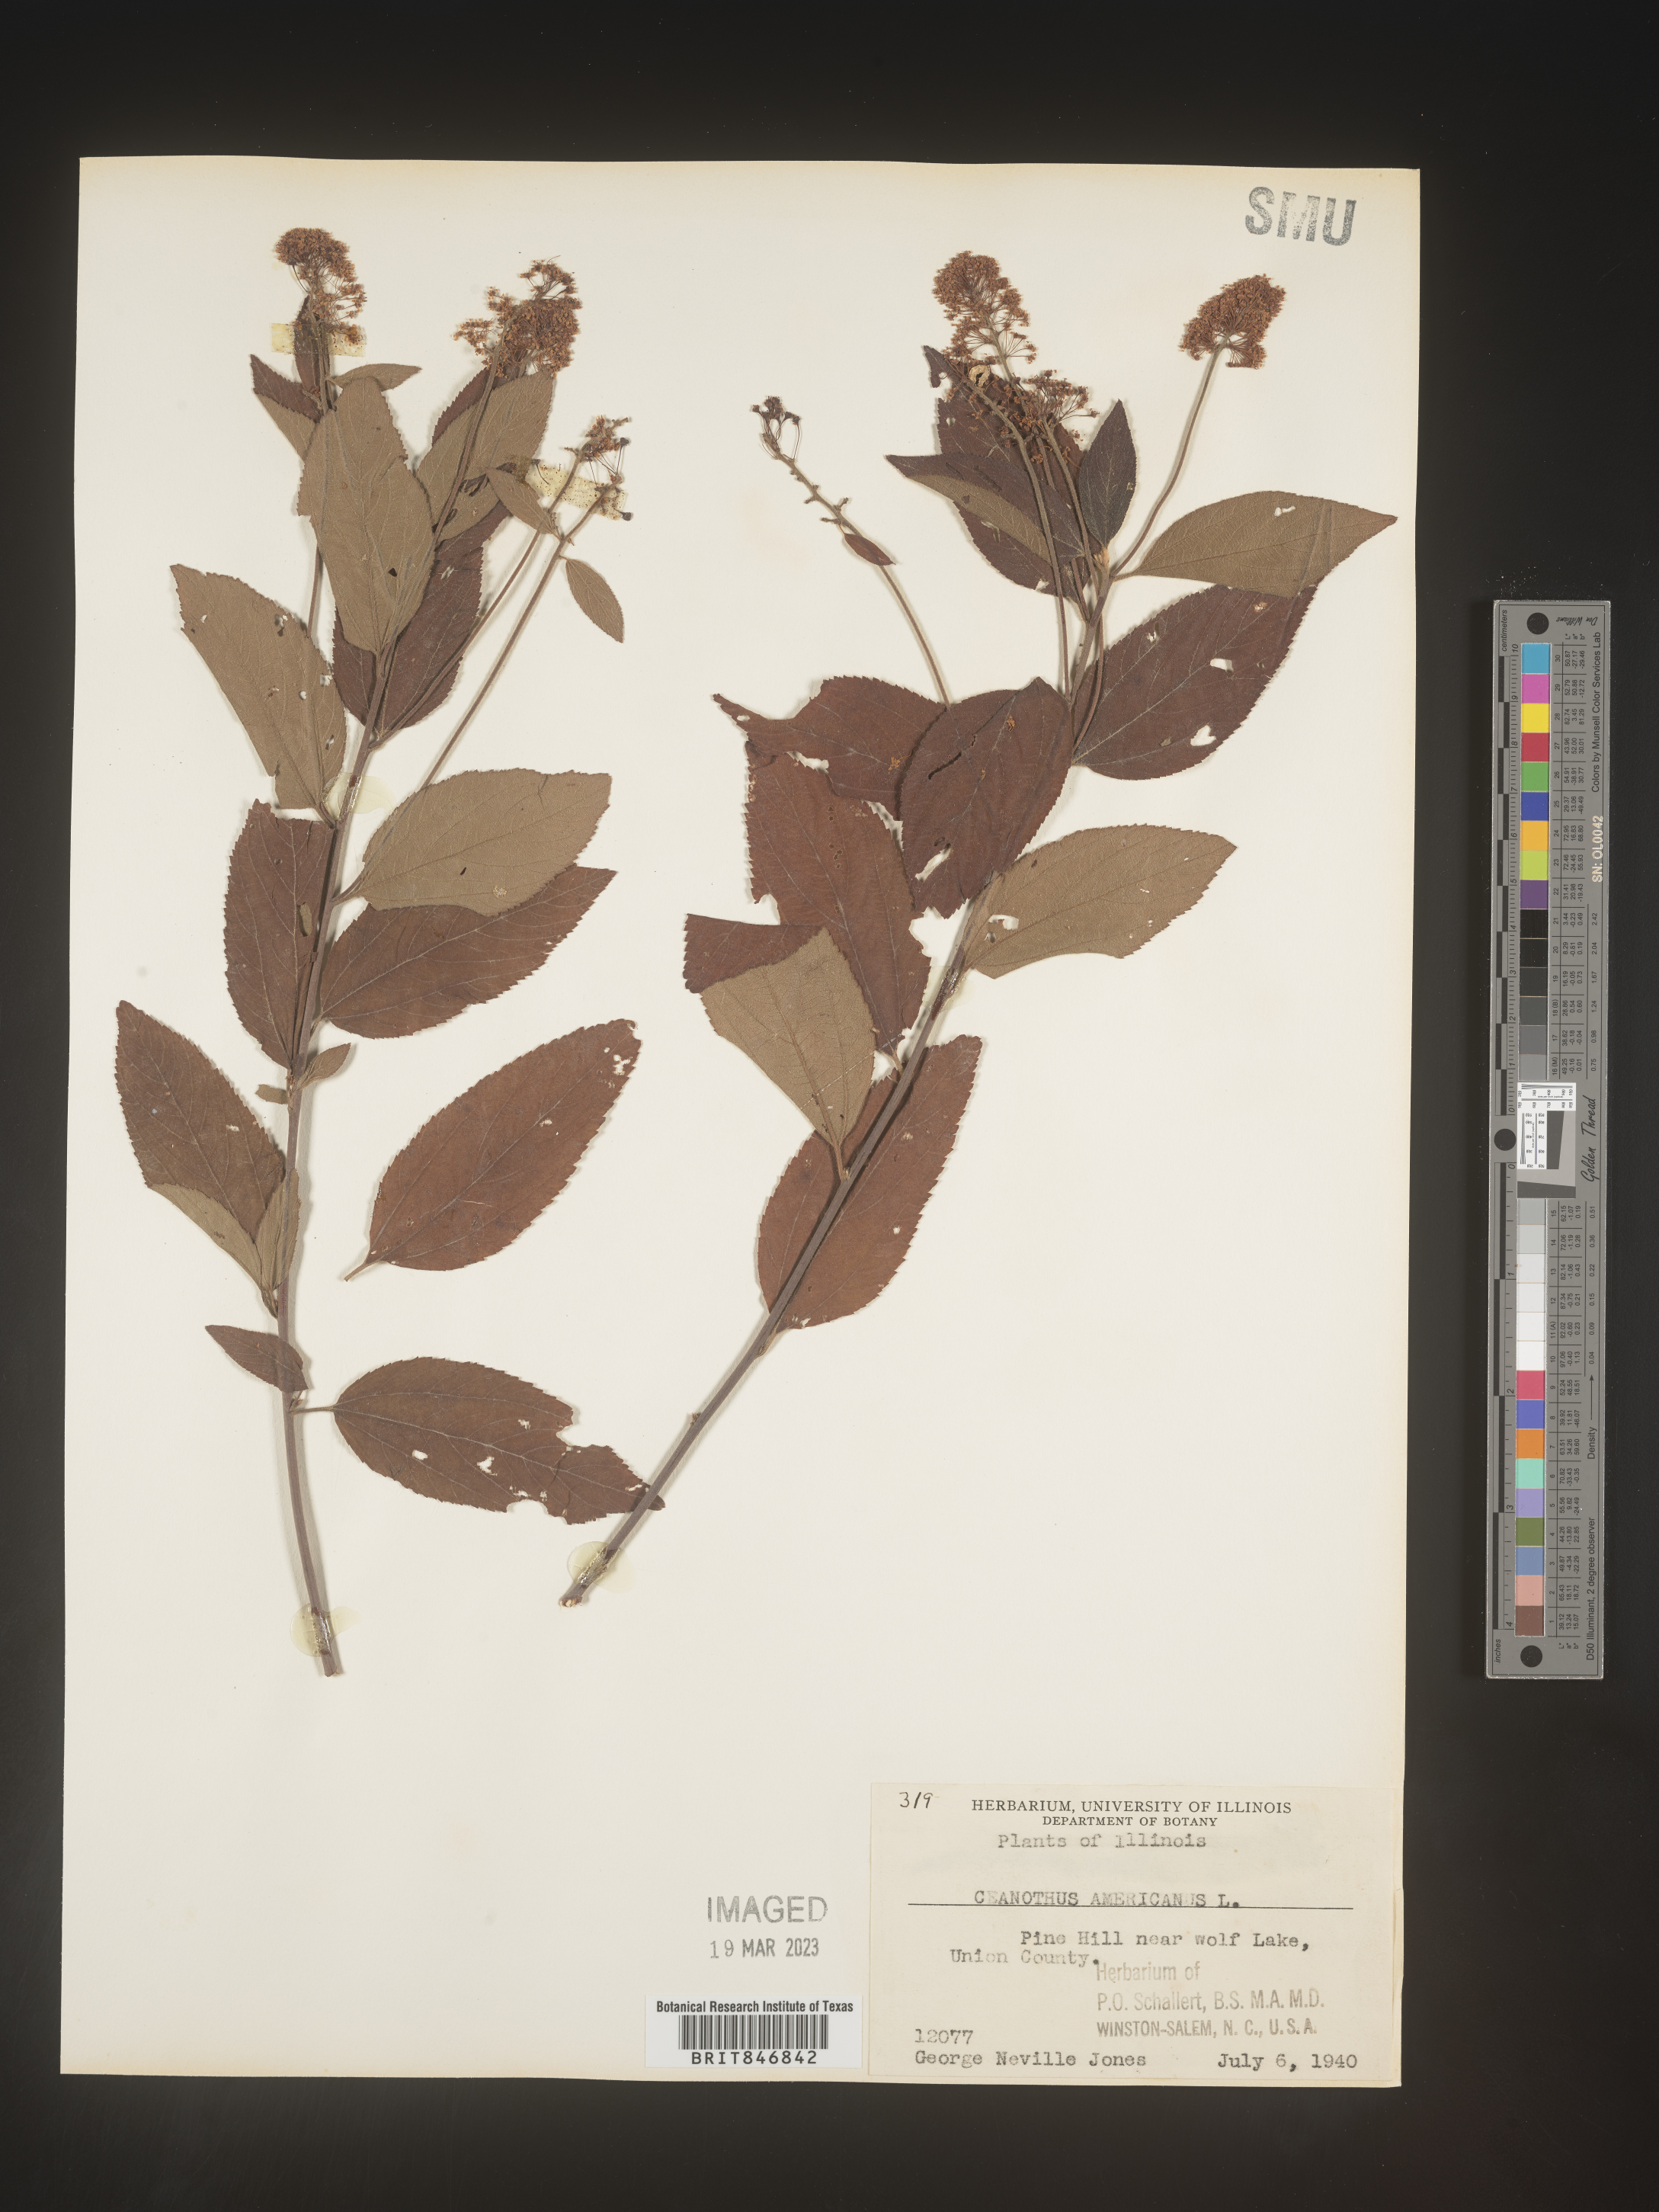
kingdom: Plantae
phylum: Tracheophyta
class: Magnoliopsida
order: Rosales
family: Rhamnaceae
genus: Ceanothus
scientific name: Ceanothus americanus
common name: Redroot
